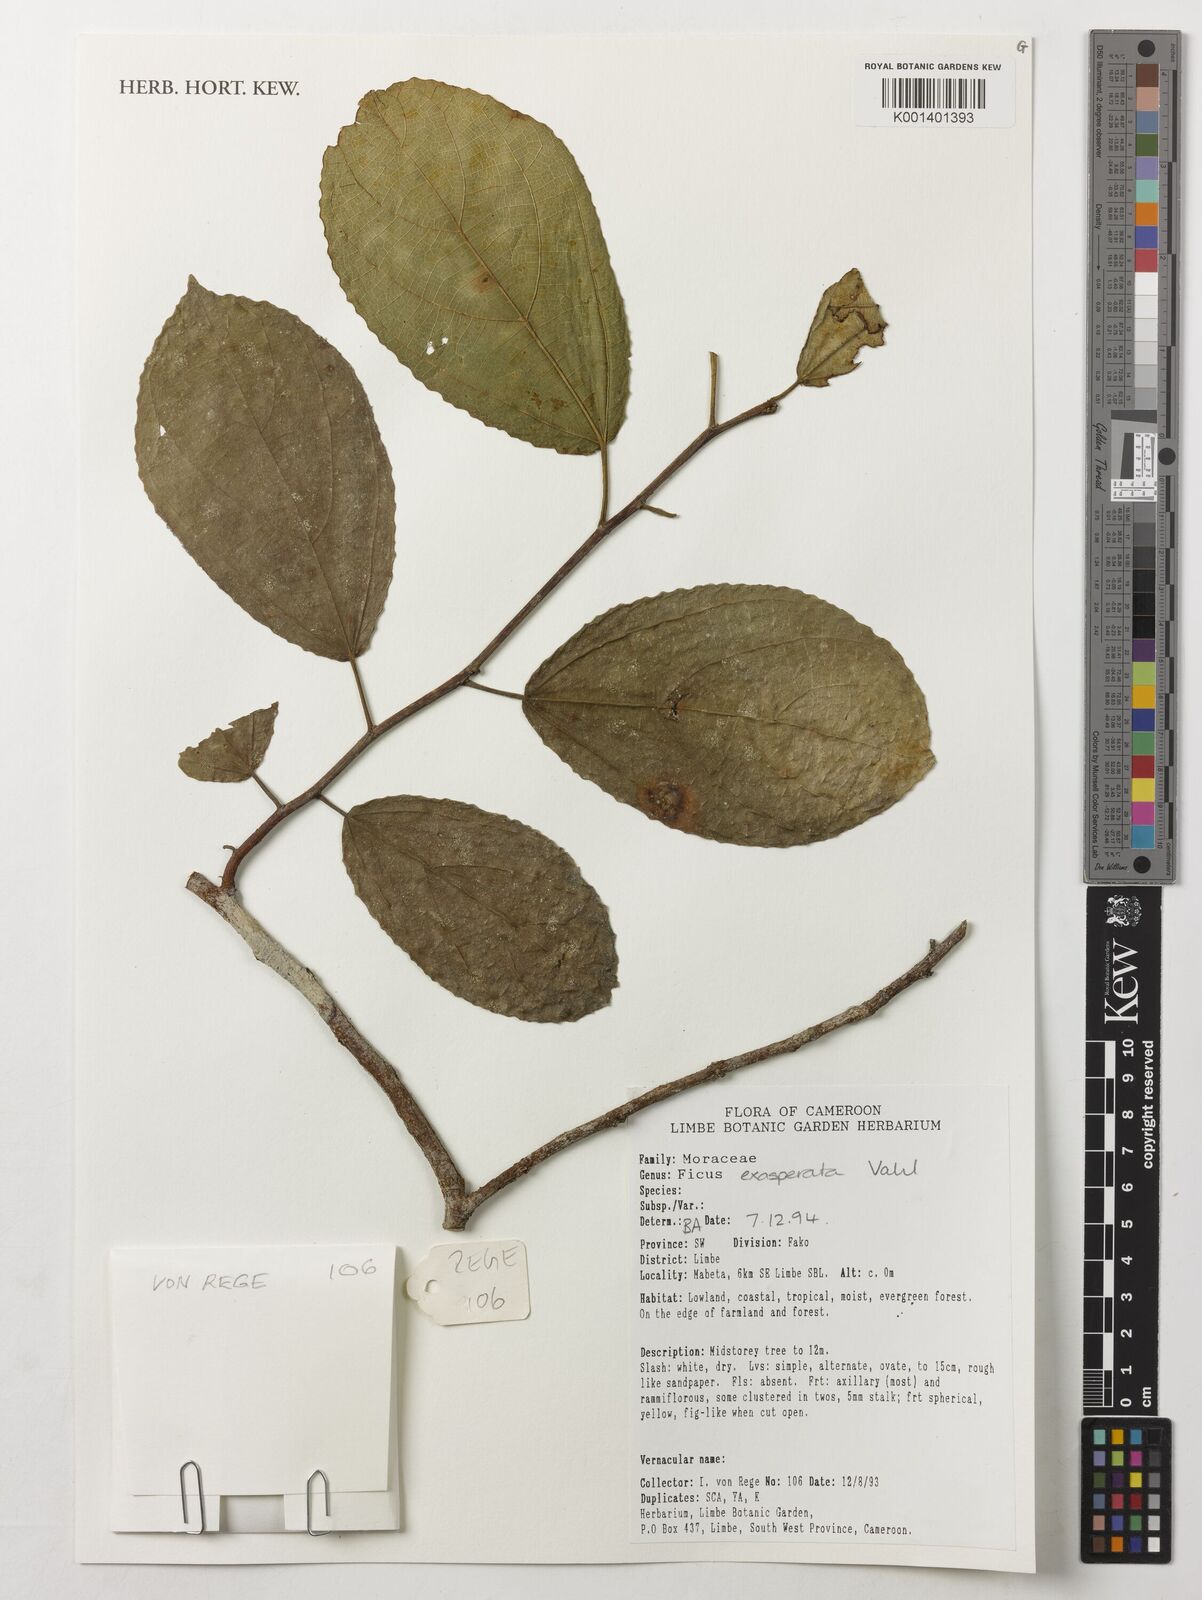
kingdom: Plantae
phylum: Tracheophyta
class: Magnoliopsida
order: Rosales
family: Moraceae
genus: Ficus
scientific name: Ficus exasperata
